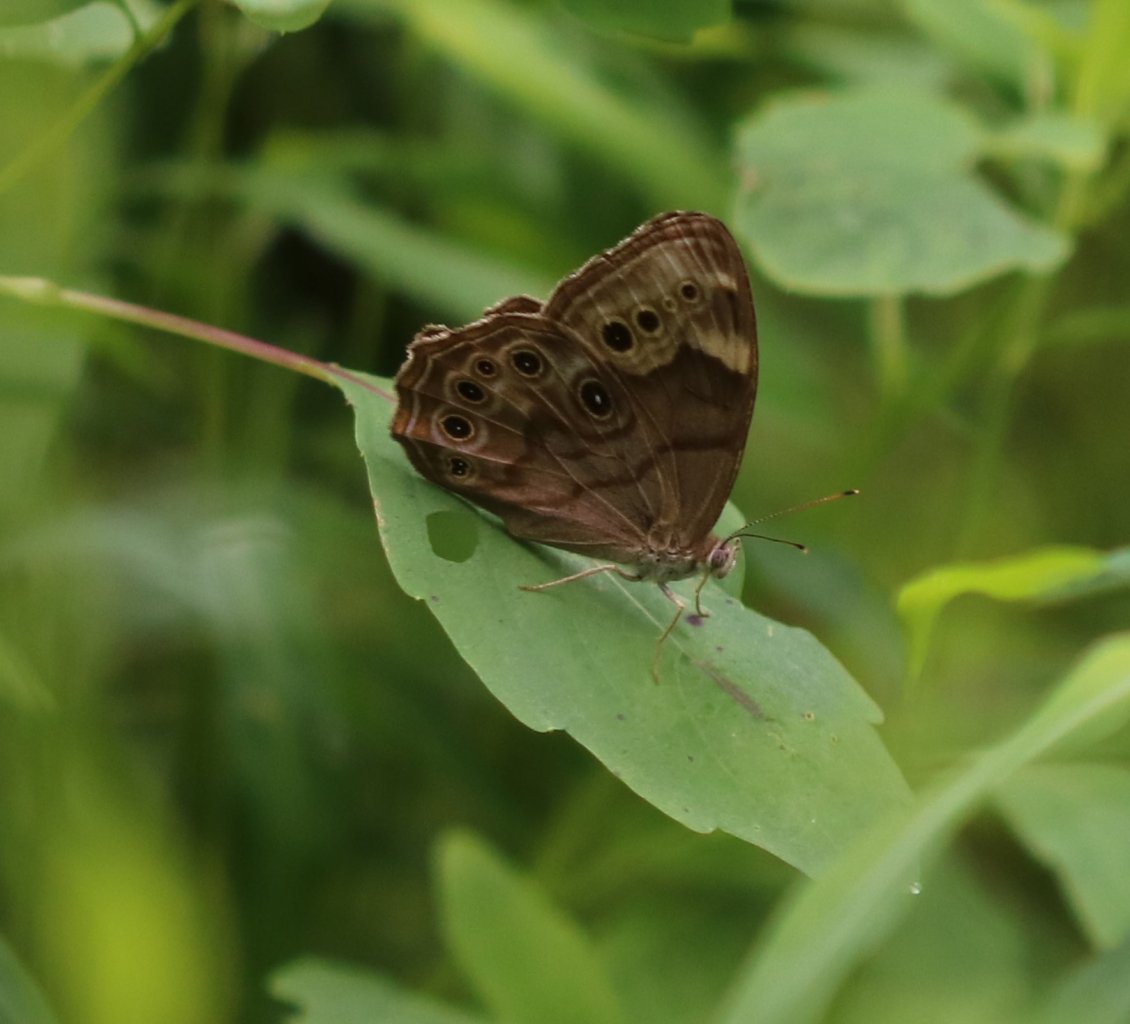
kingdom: Animalia
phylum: Arthropoda
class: Insecta
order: Lepidoptera
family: Nymphalidae
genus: Lethe
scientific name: Lethe anthedon
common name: Northern Pearly-Eye
